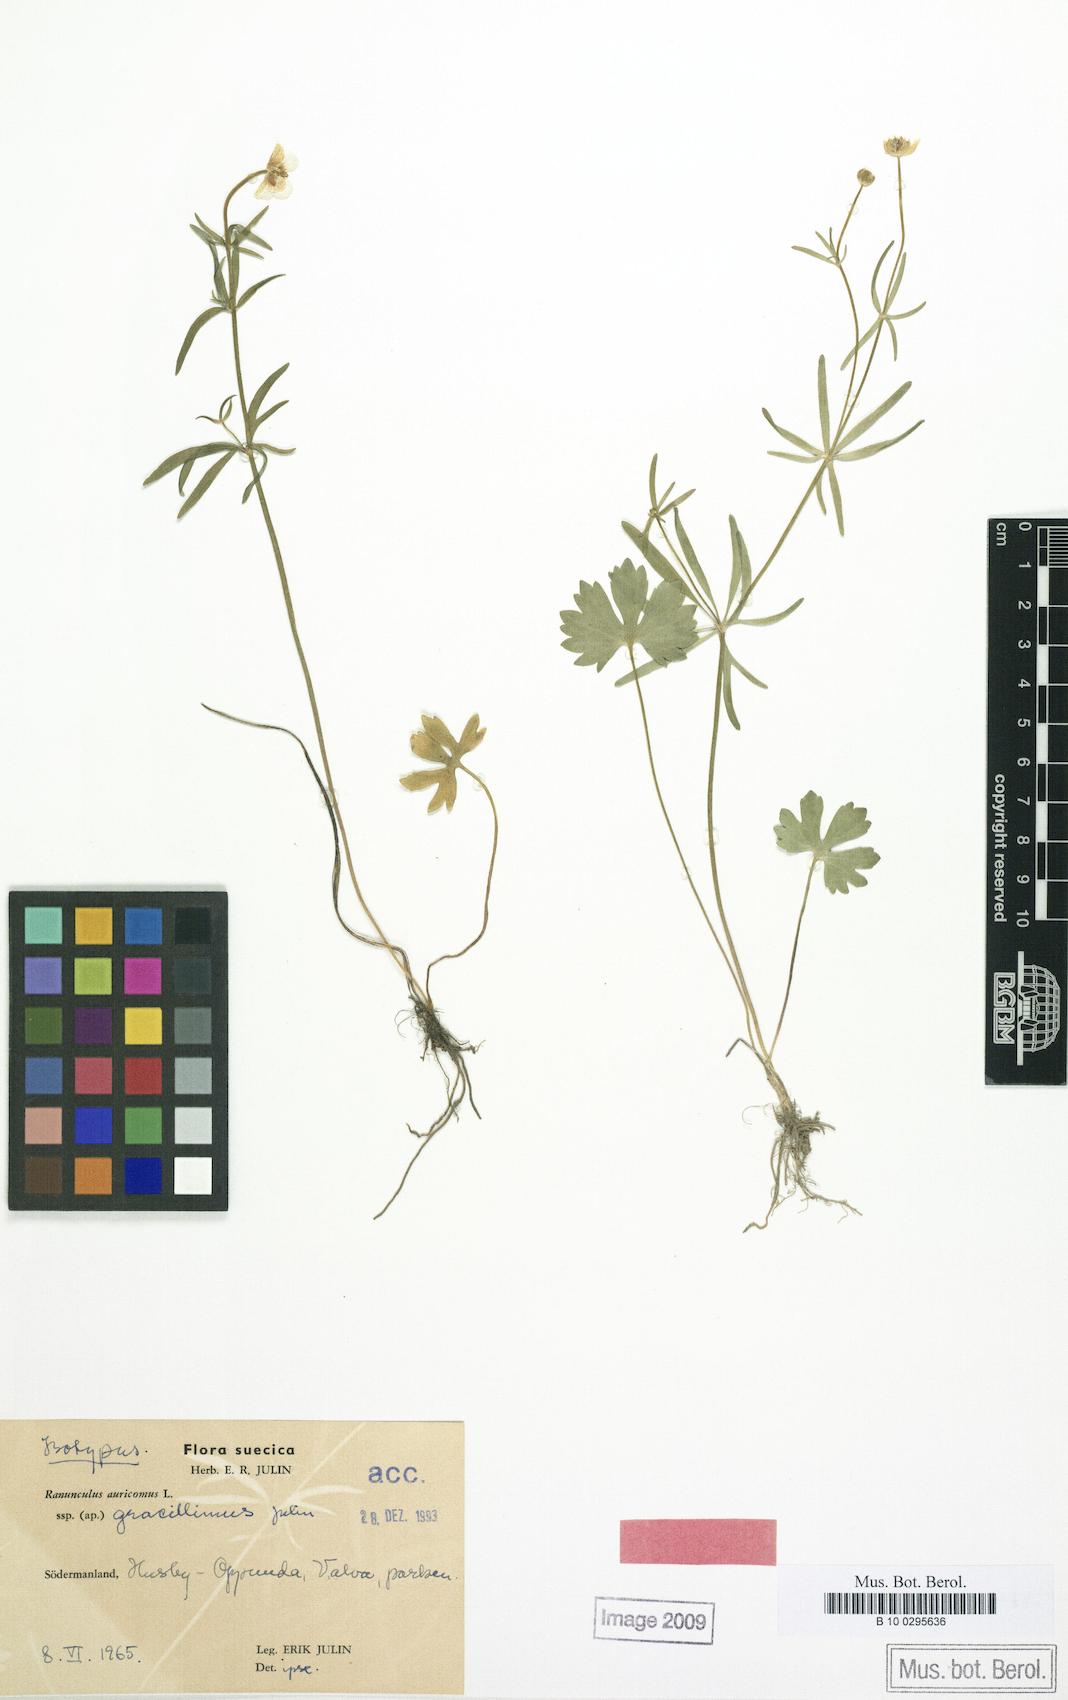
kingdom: Plantae
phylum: Tracheophyta
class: Magnoliopsida
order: Ranunculales
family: Ranunculaceae
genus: Ranunculus
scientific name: Ranunculus gracillimus
